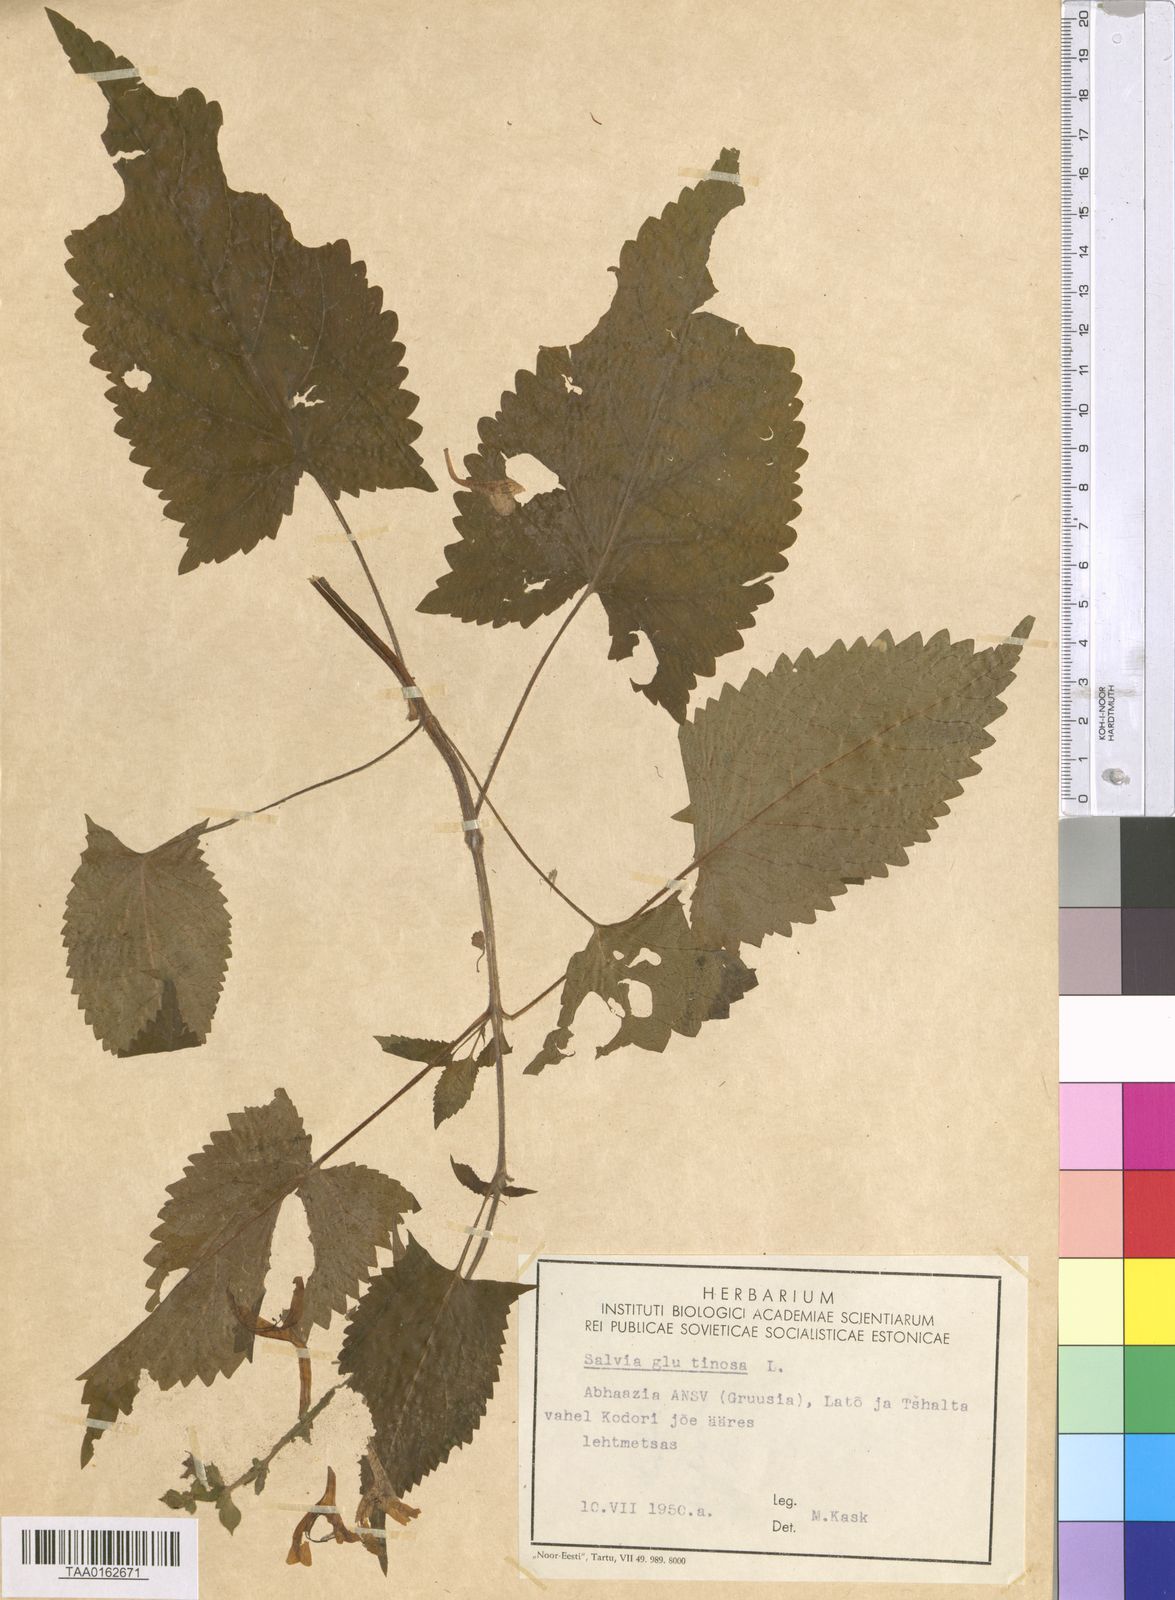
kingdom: Plantae
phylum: Tracheophyta
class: Magnoliopsida
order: Lamiales
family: Lamiaceae
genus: Salvia
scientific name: Salvia glutinosa
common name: Sticky clary
